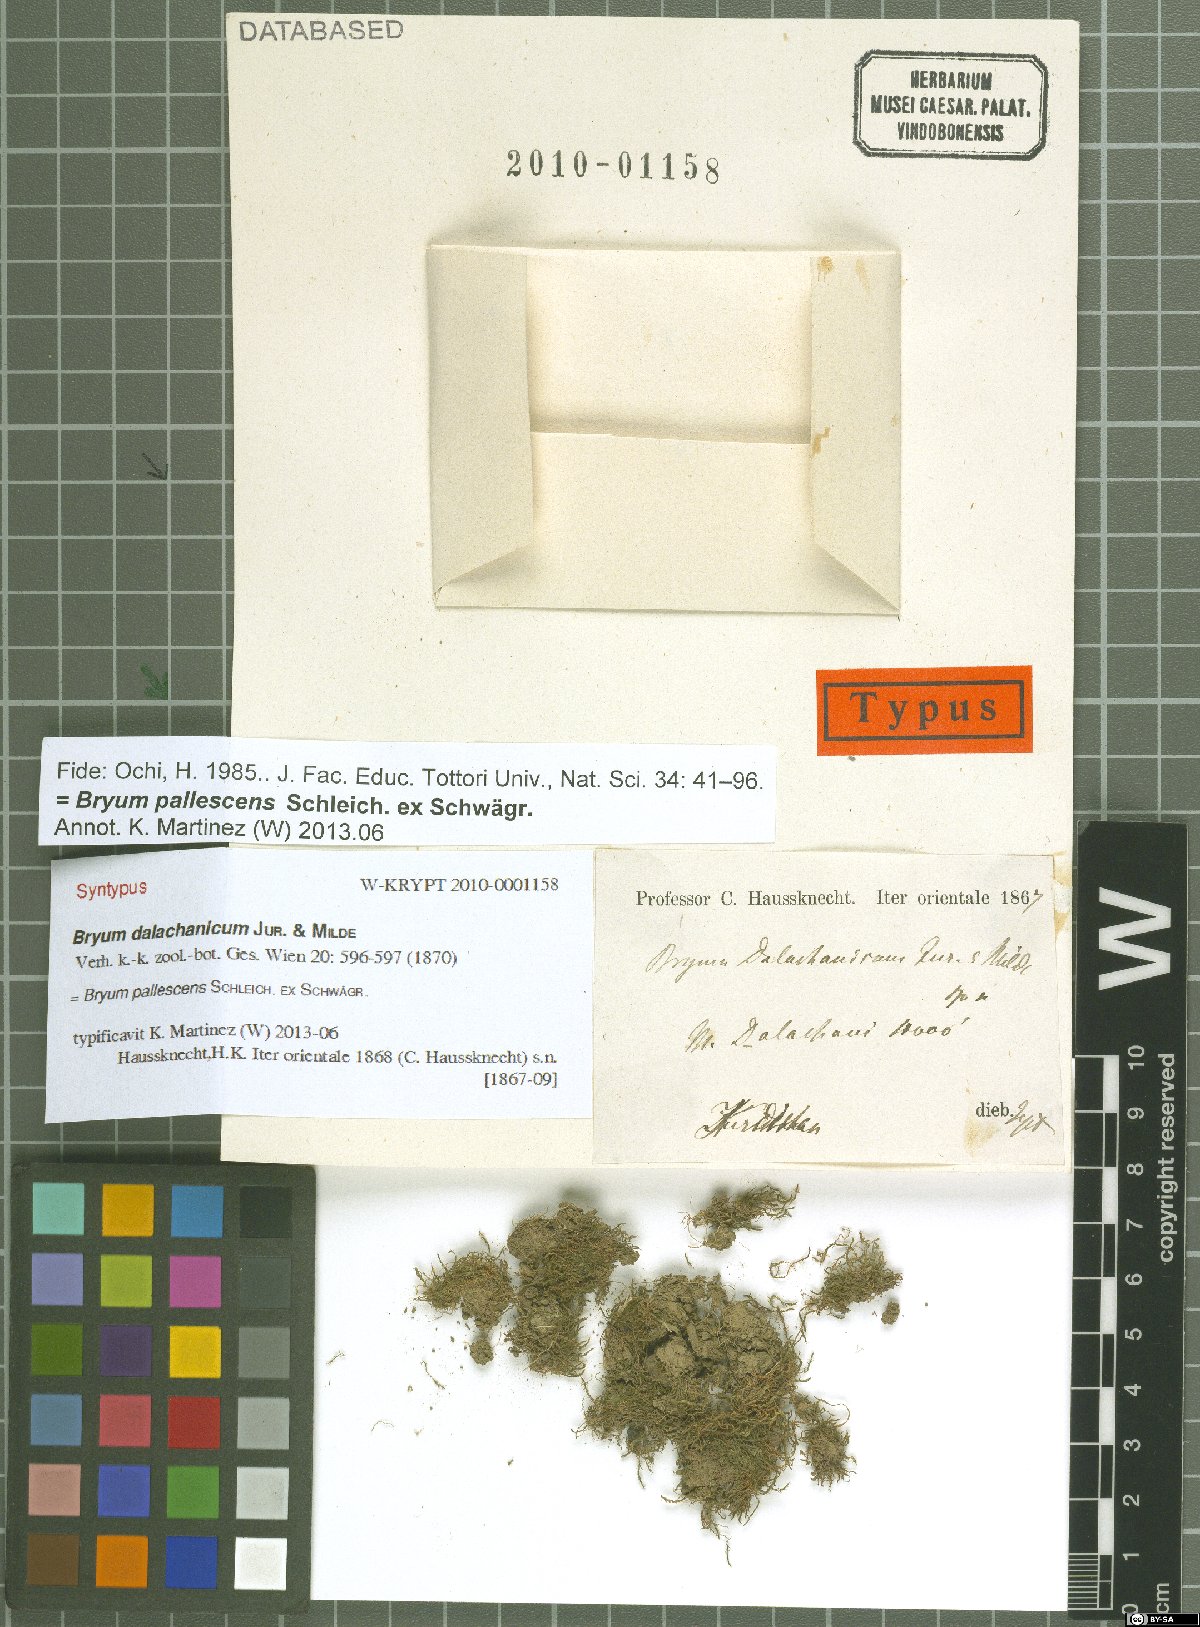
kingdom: Plantae
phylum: Bryophyta
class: Bryopsida
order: Bryales
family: Bryaceae
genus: Ptychostomum
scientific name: Ptychostomum pallescens
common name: Tall-clustered thread-moss
